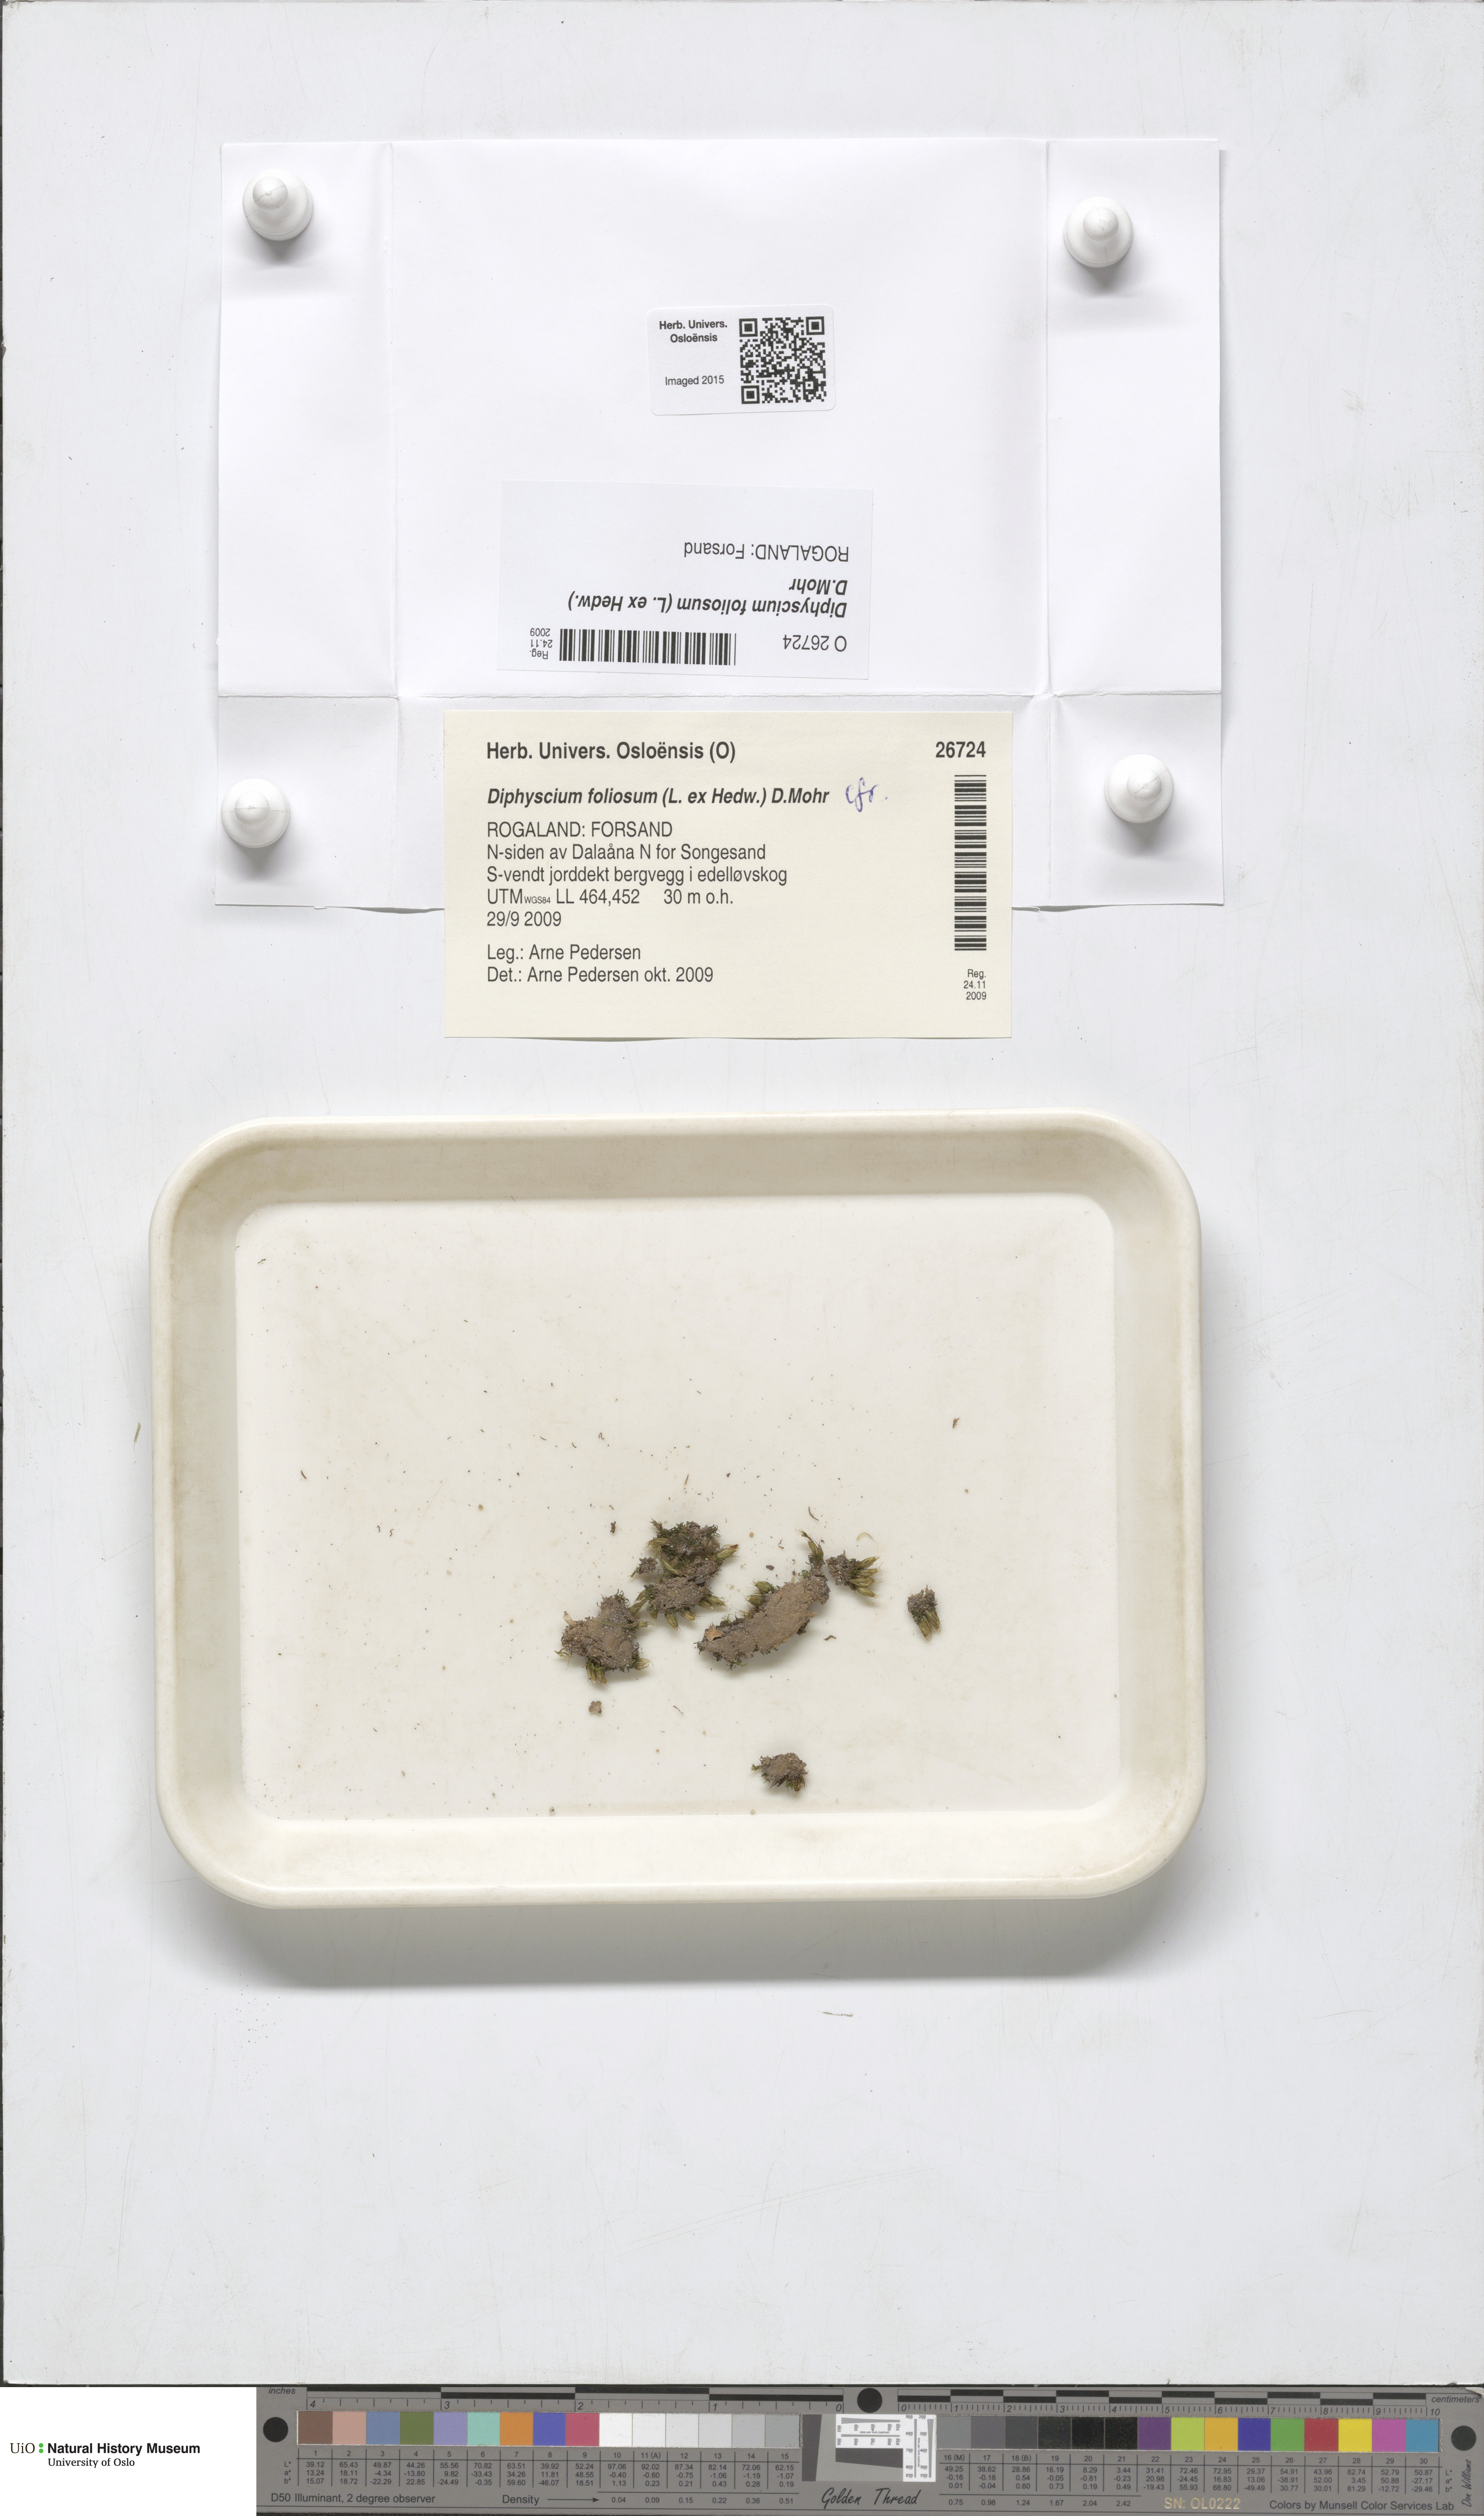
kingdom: Plantae
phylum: Bryophyta
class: Bryopsida
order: Diphysciales
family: Diphysciaceae
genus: Diphyscium
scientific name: Diphyscium foliosum
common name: Nut moss
